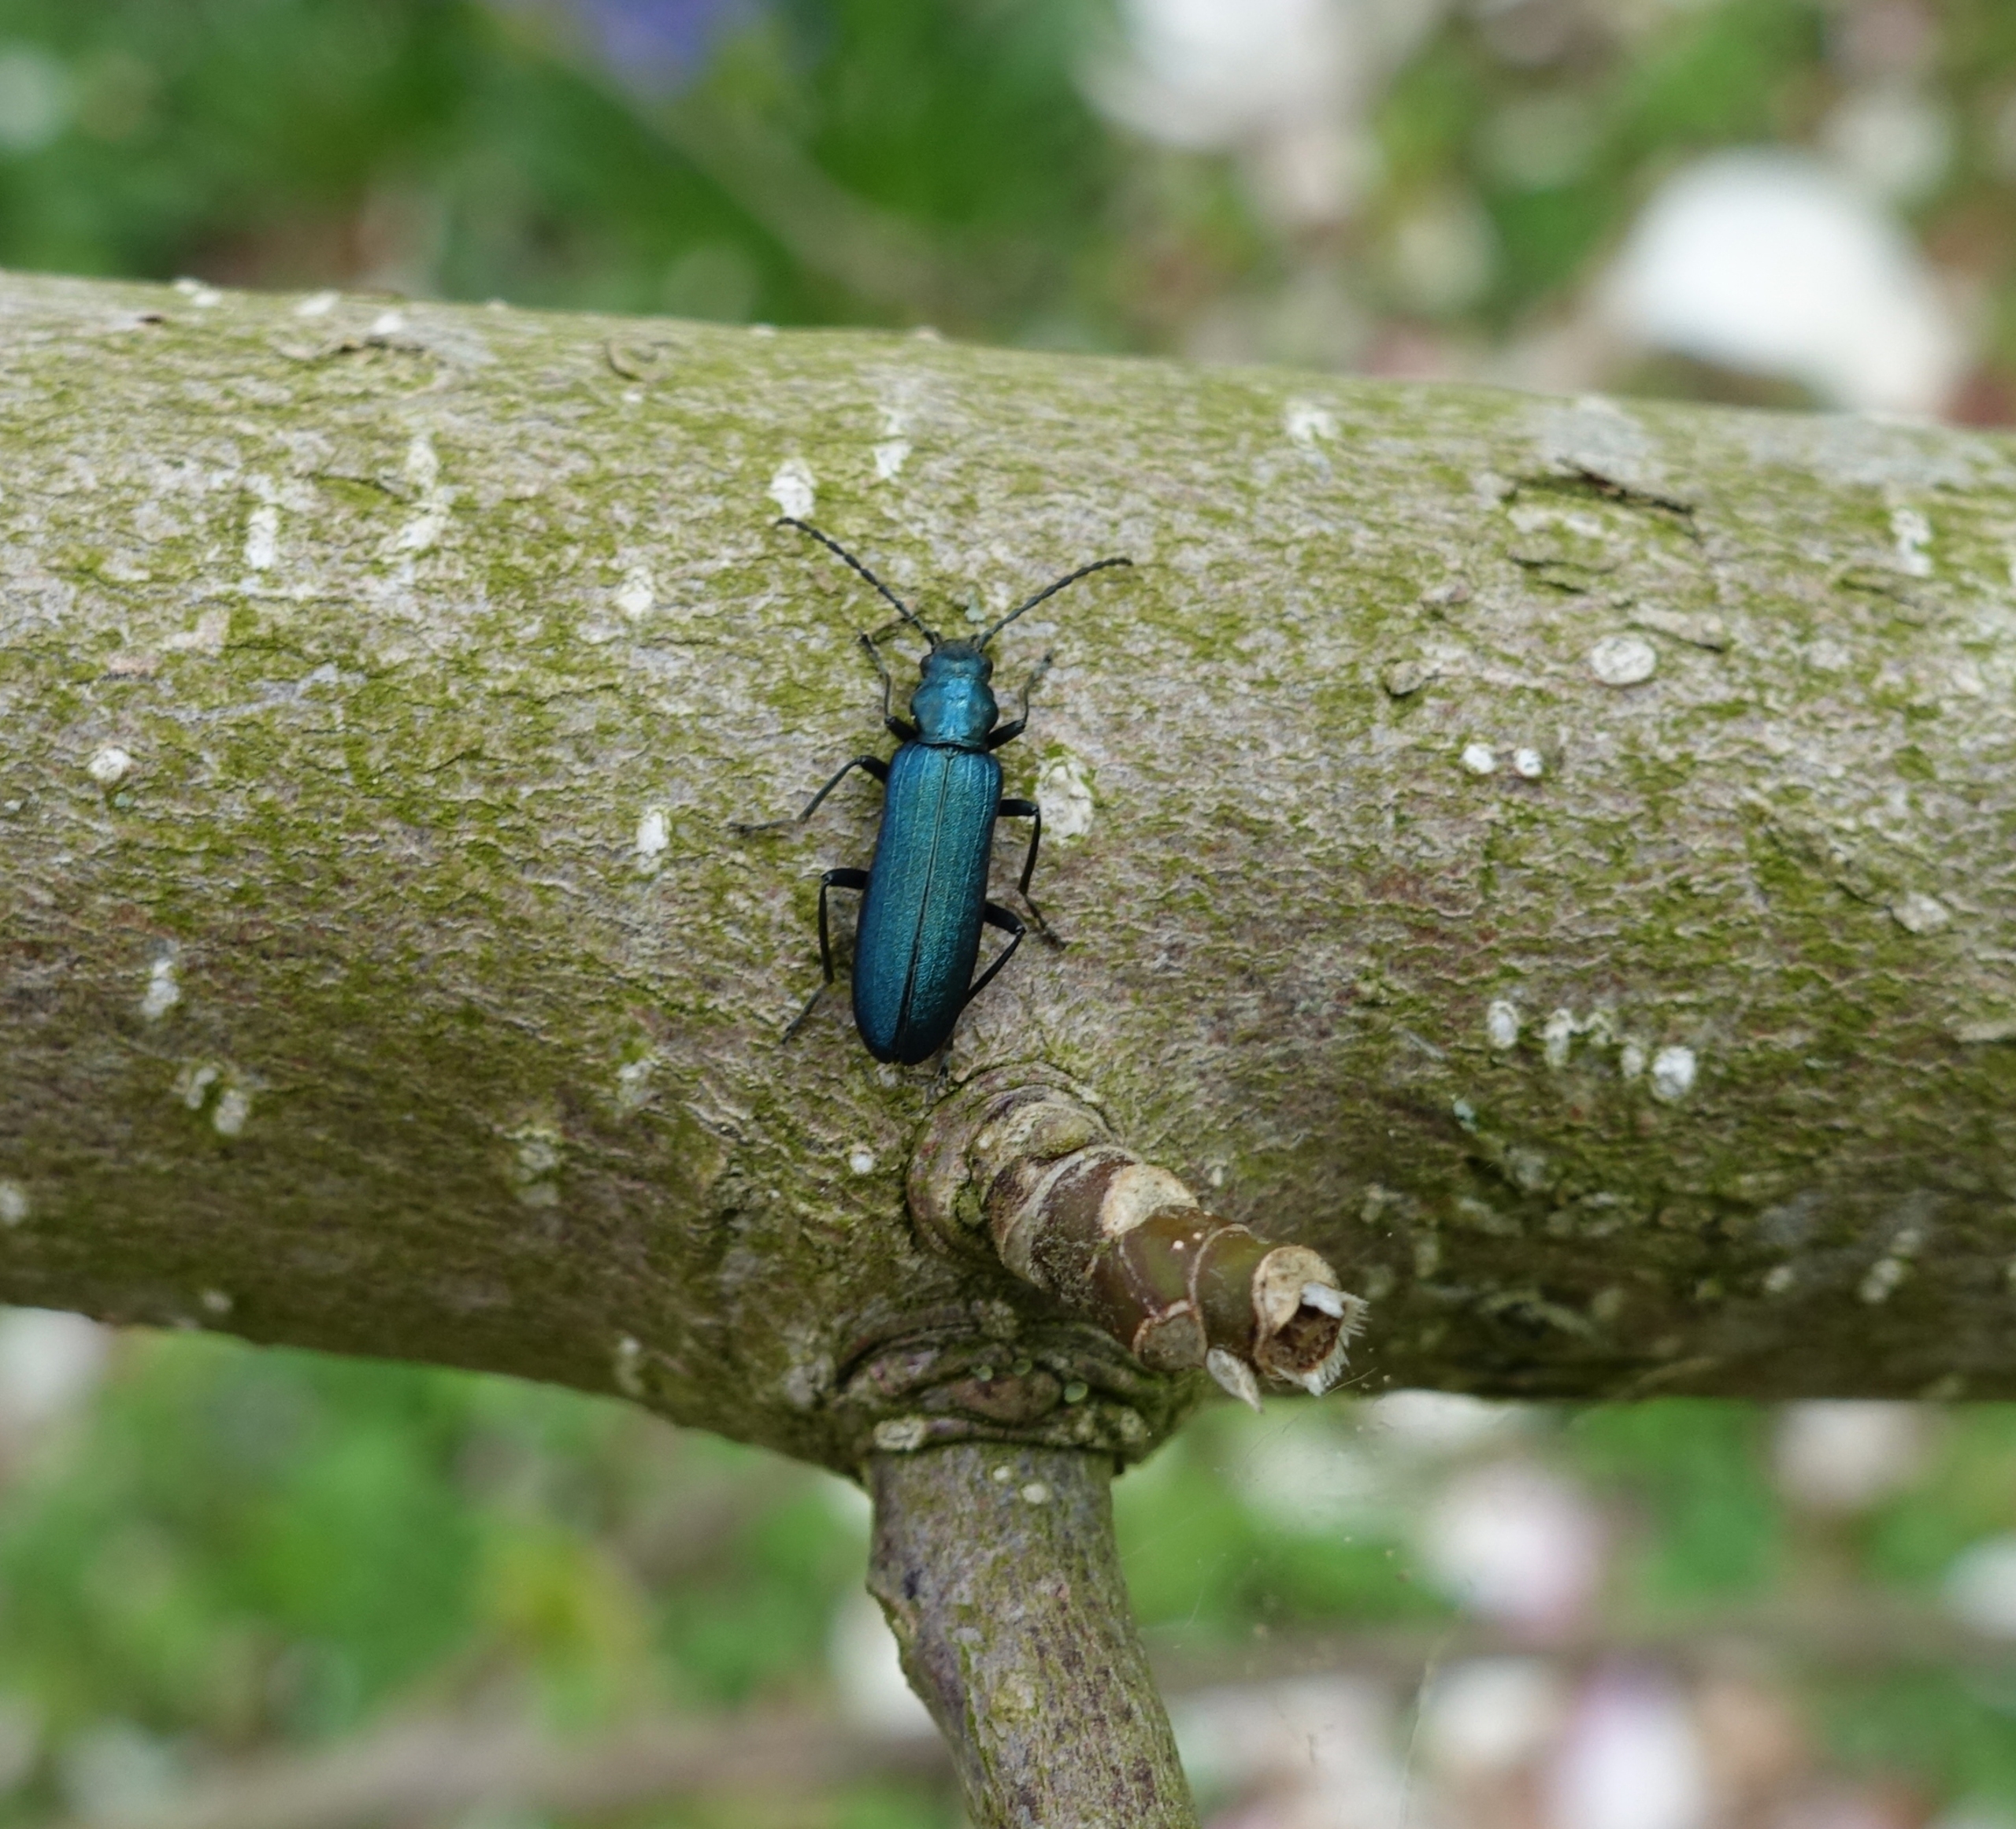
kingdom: Animalia
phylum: Arthropoda
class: Insecta
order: Coleoptera
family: Oedemeridae
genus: Ischnomera
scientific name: Ischnomera cyanea
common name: Blågrøn solbille
